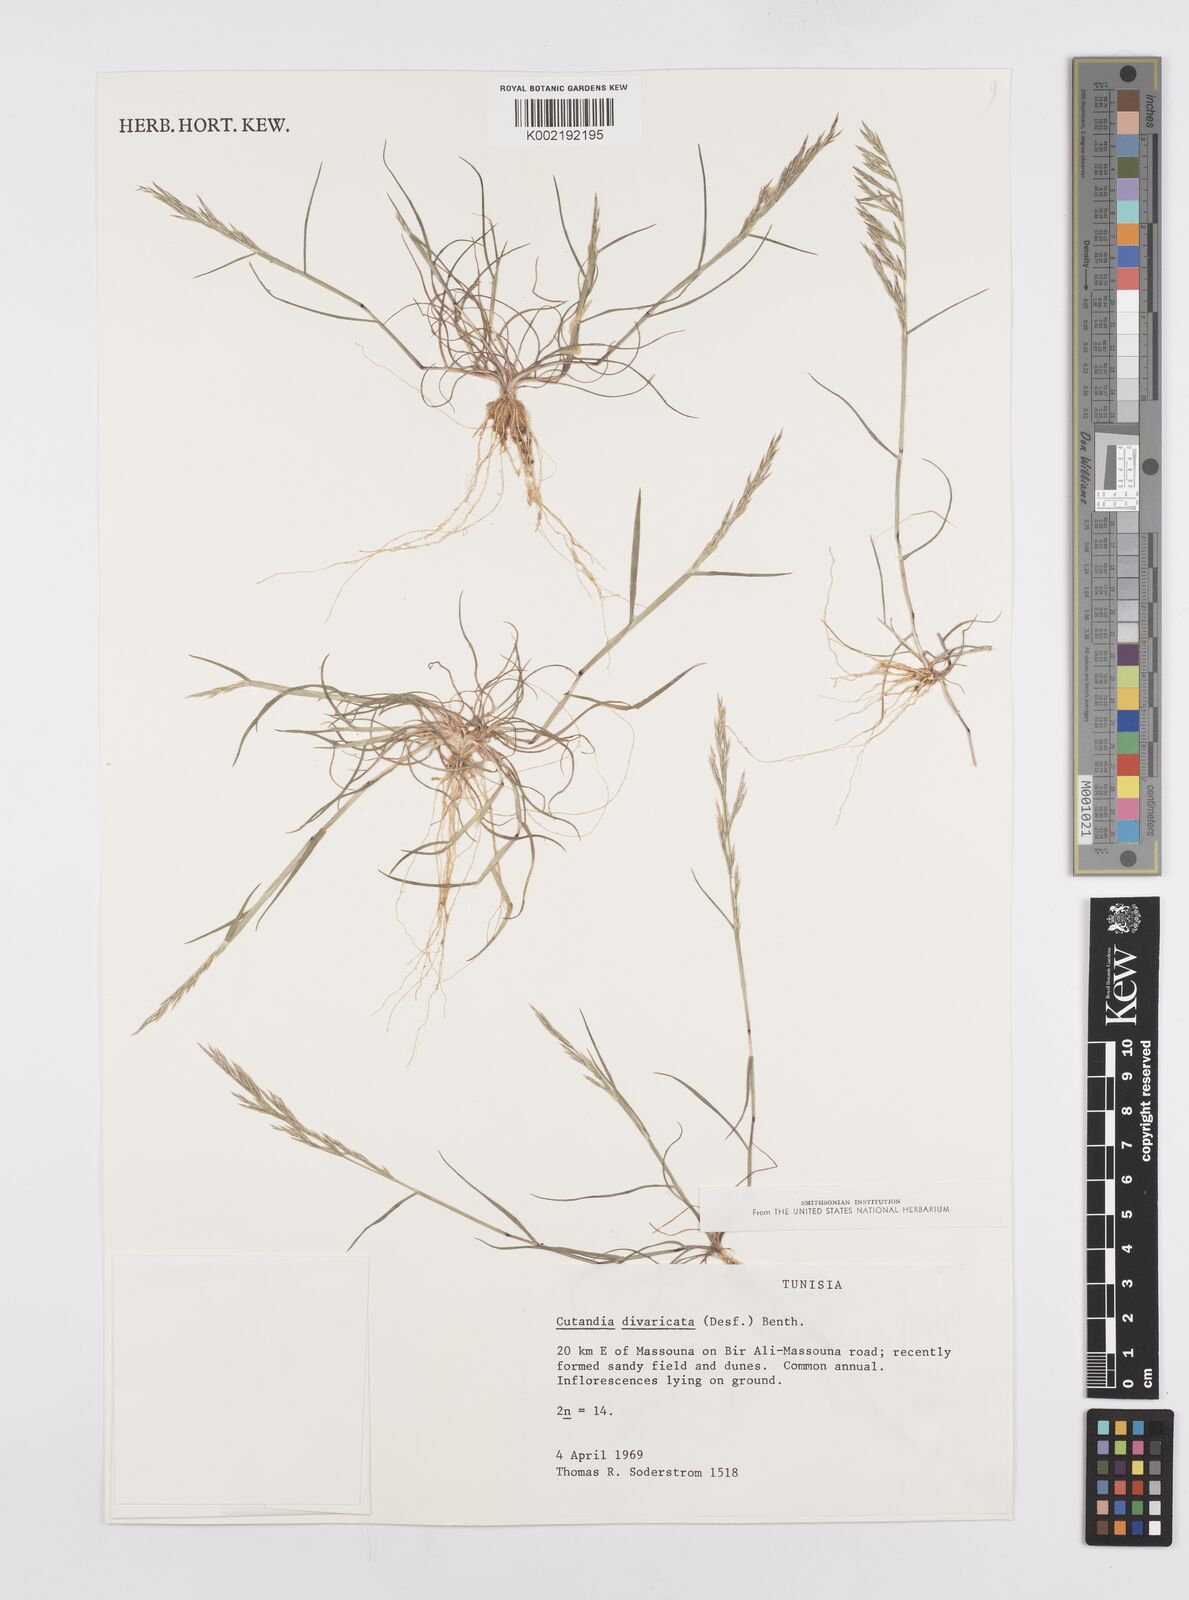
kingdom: Plantae
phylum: Tracheophyta
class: Liliopsida
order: Poales
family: Poaceae
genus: Cutandia
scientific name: Cutandia divaricata
